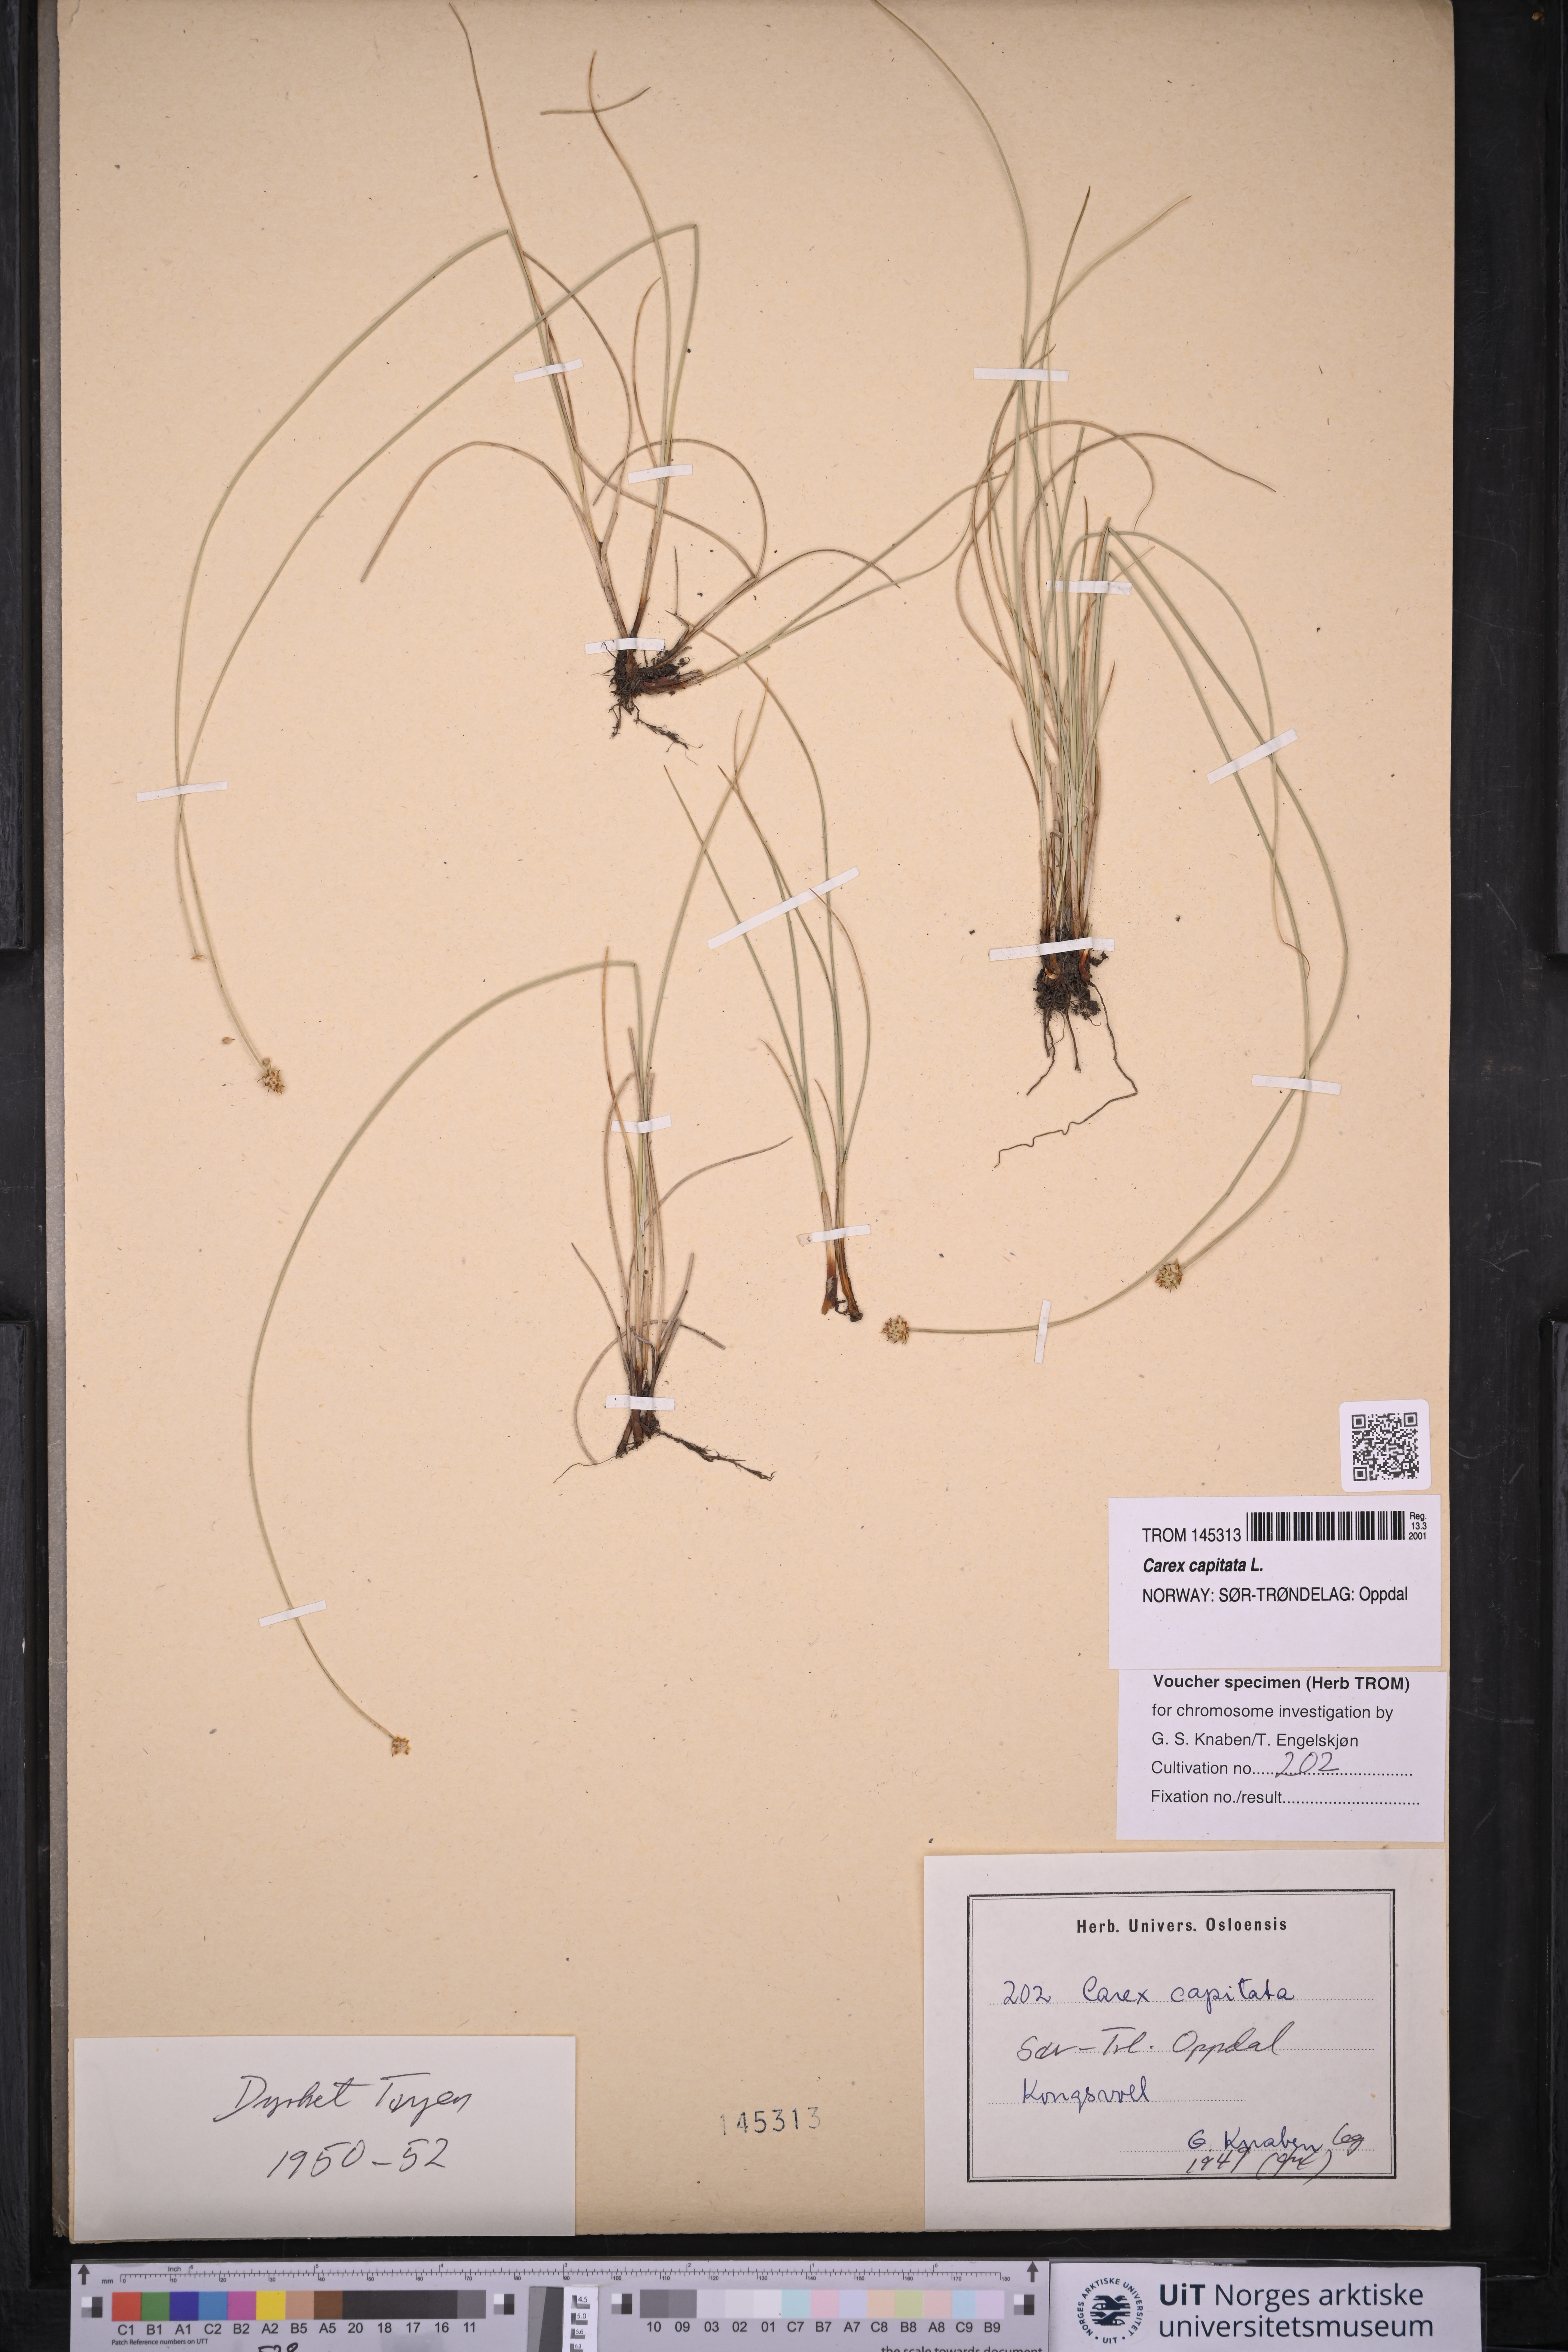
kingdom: Plantae
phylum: Tracheophyta
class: Liliopsida
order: Poales
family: Cyperaceae
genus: Carex
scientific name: Carex capitata
